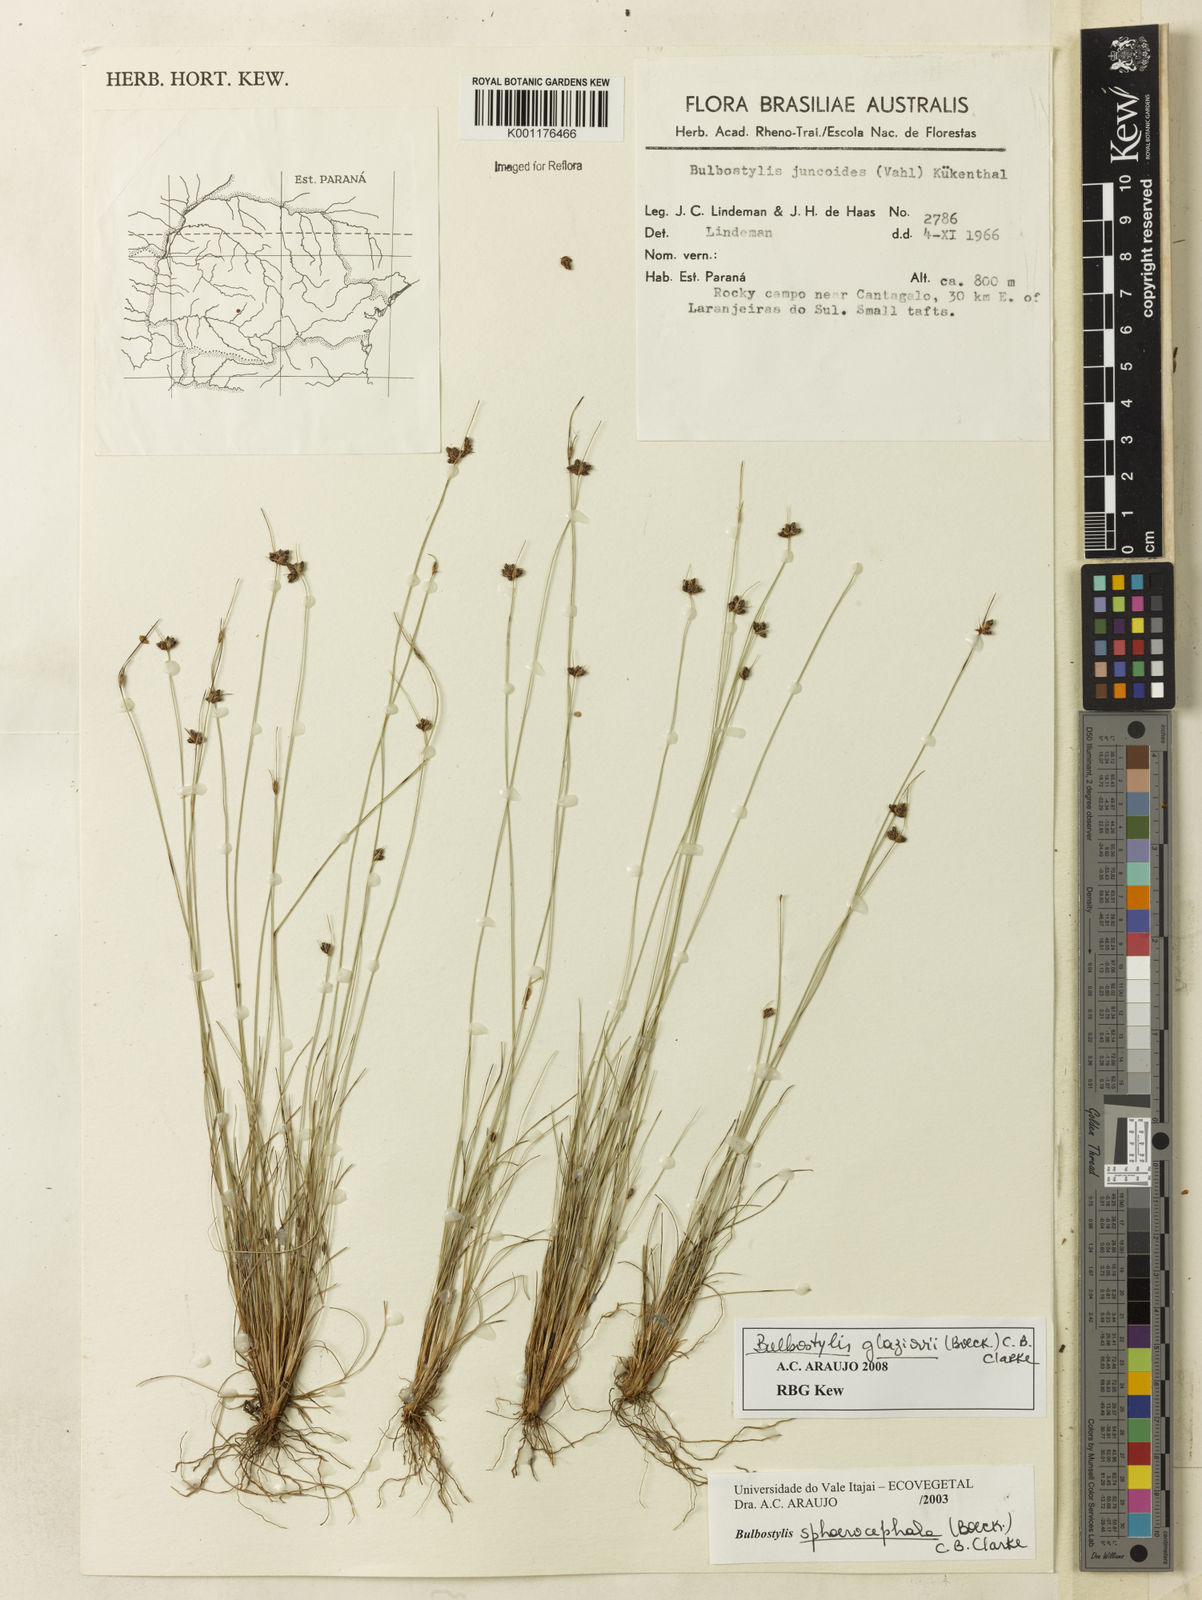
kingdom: Plantae
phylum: Tracheophyta
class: Liliopsida
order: Poales
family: Cyperaceae
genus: Bulbostylis
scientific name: Bulbostylis juncoides
